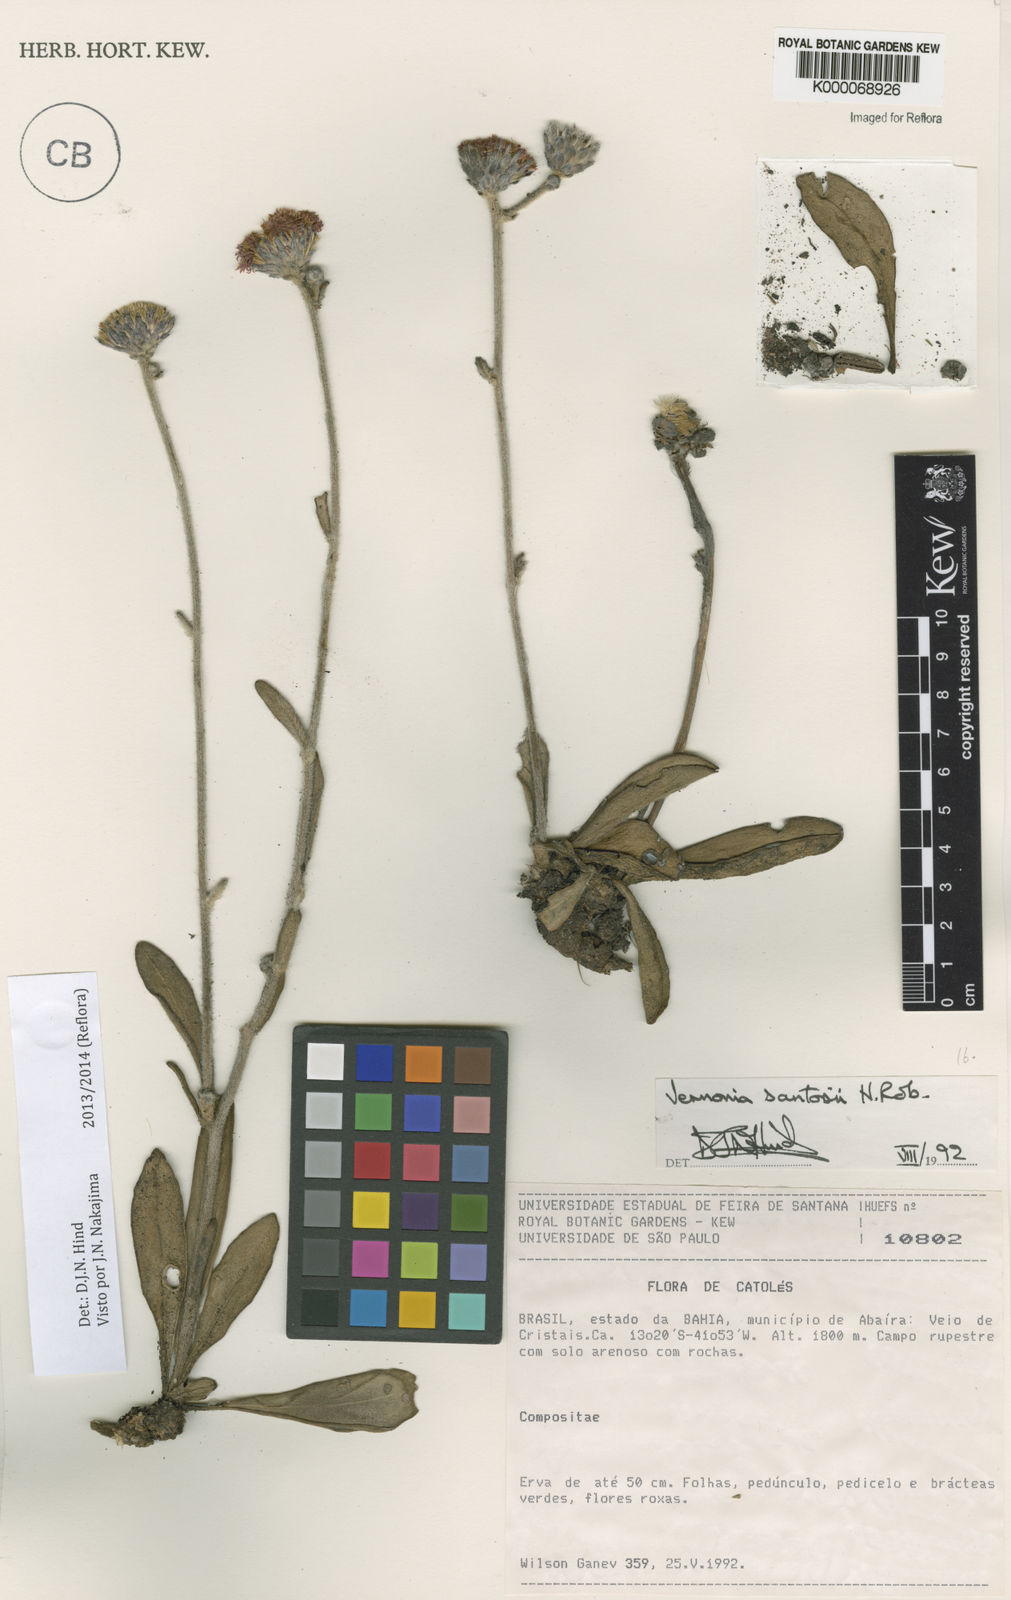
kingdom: Plantae
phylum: Tracheophyta
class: Magnoliopsida
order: Asterales
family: Asteraceae
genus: Lessingianthus
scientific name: Lessingianthus santosii
